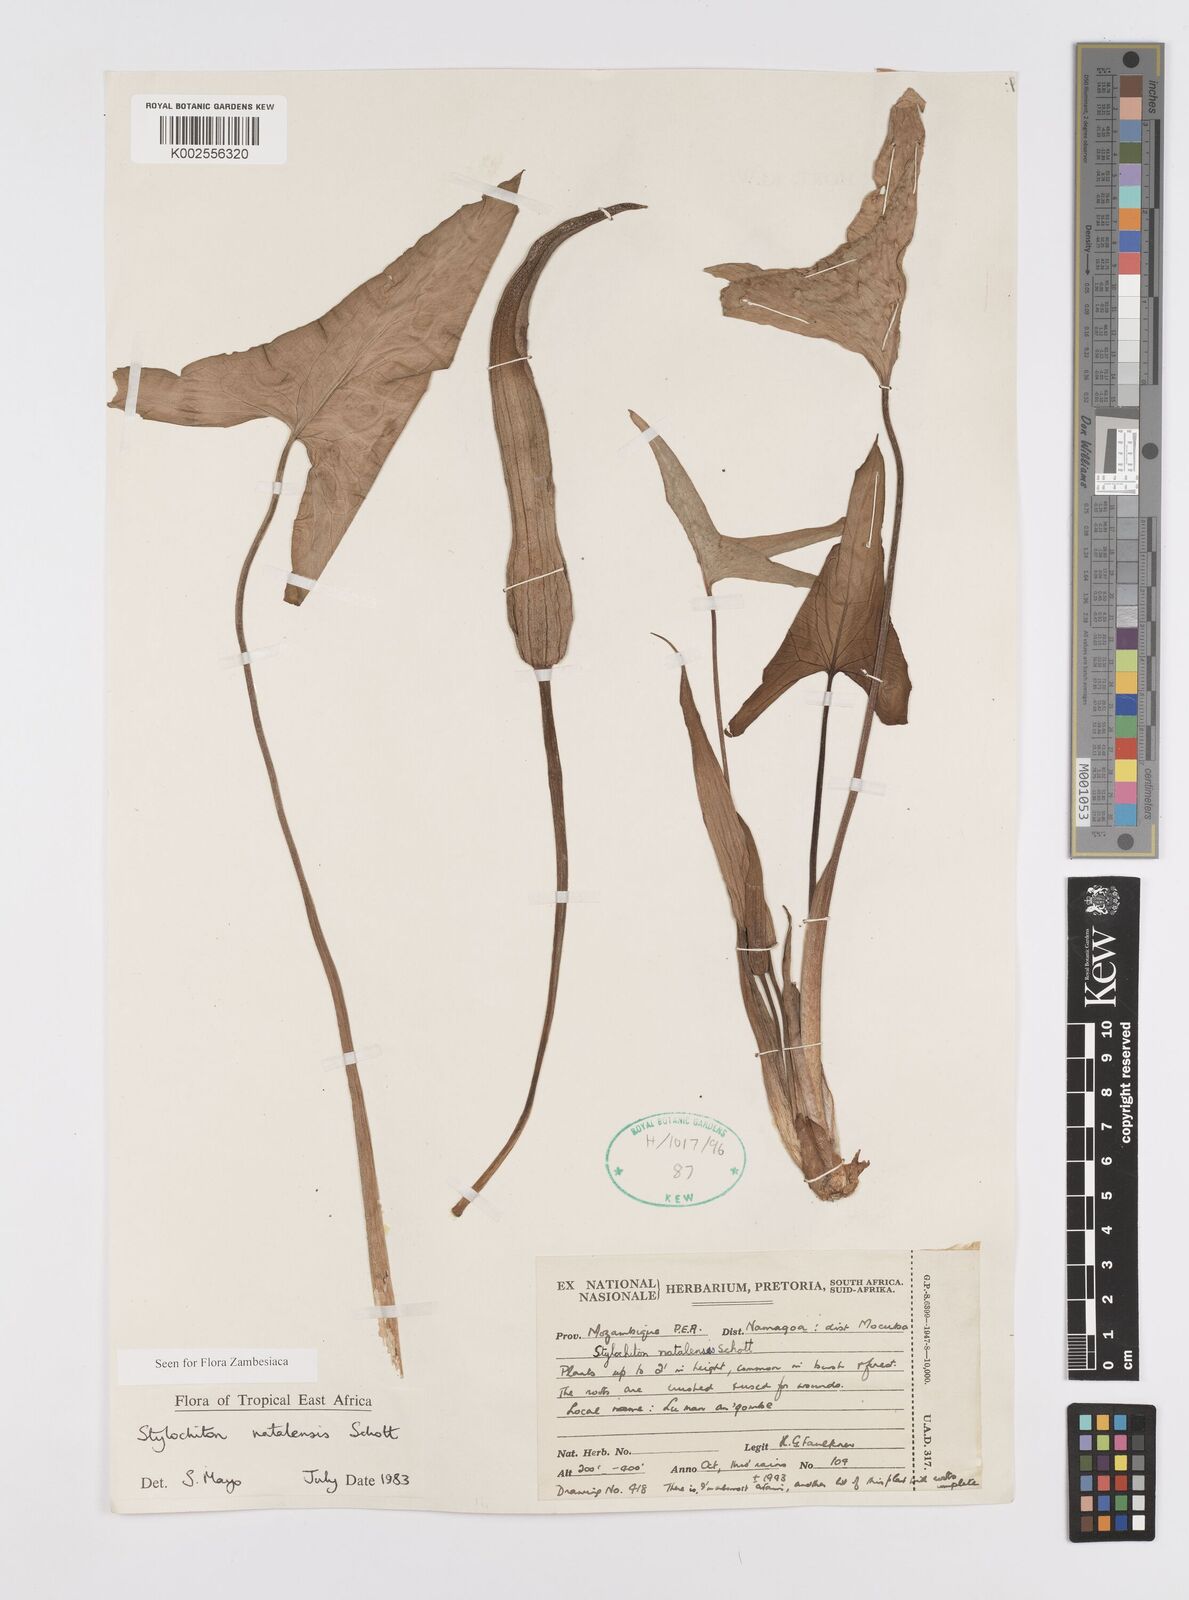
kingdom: Plantae
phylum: Tracheophyta
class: Liliopsida
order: Alismatales
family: Araceae
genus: Stylochaeton
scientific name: Stylochaeton natalense
